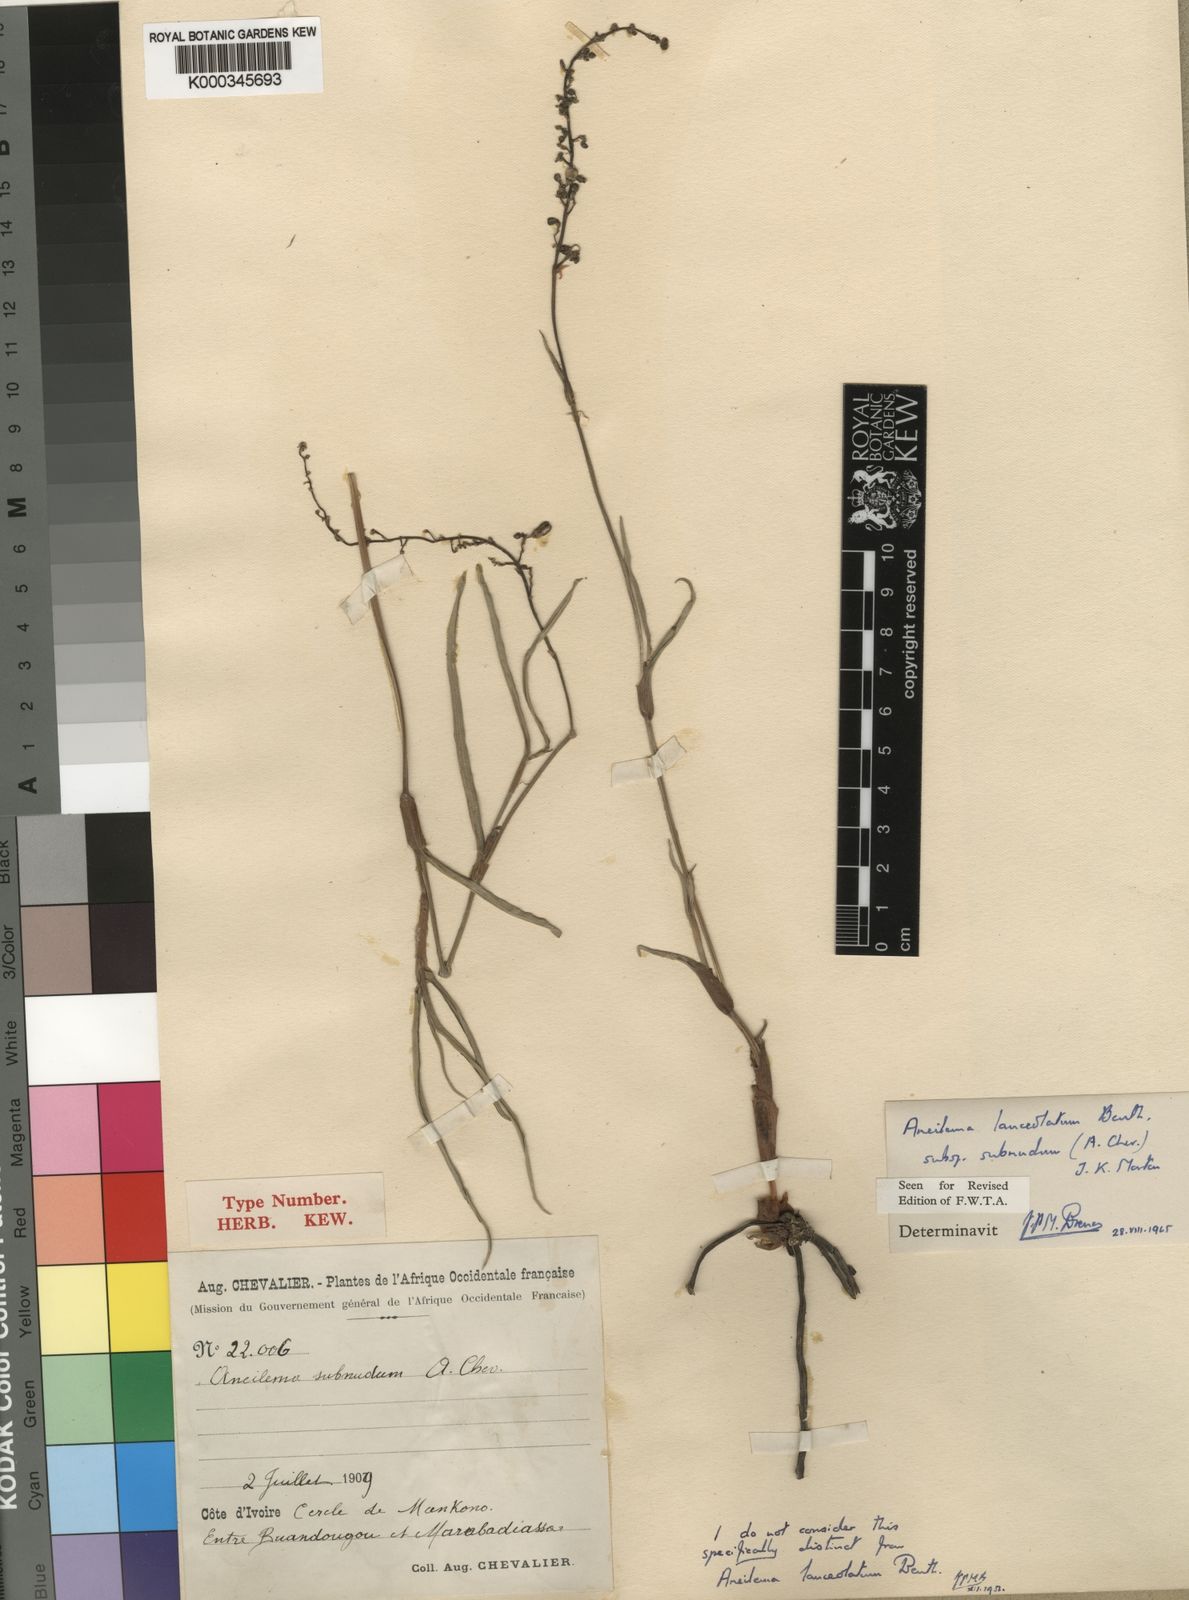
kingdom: Plantae
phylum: Tracheophyta
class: Liliopsida
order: Commelinales
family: Commelinaceae
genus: Aneilema
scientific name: Aneilema lanceolatum
